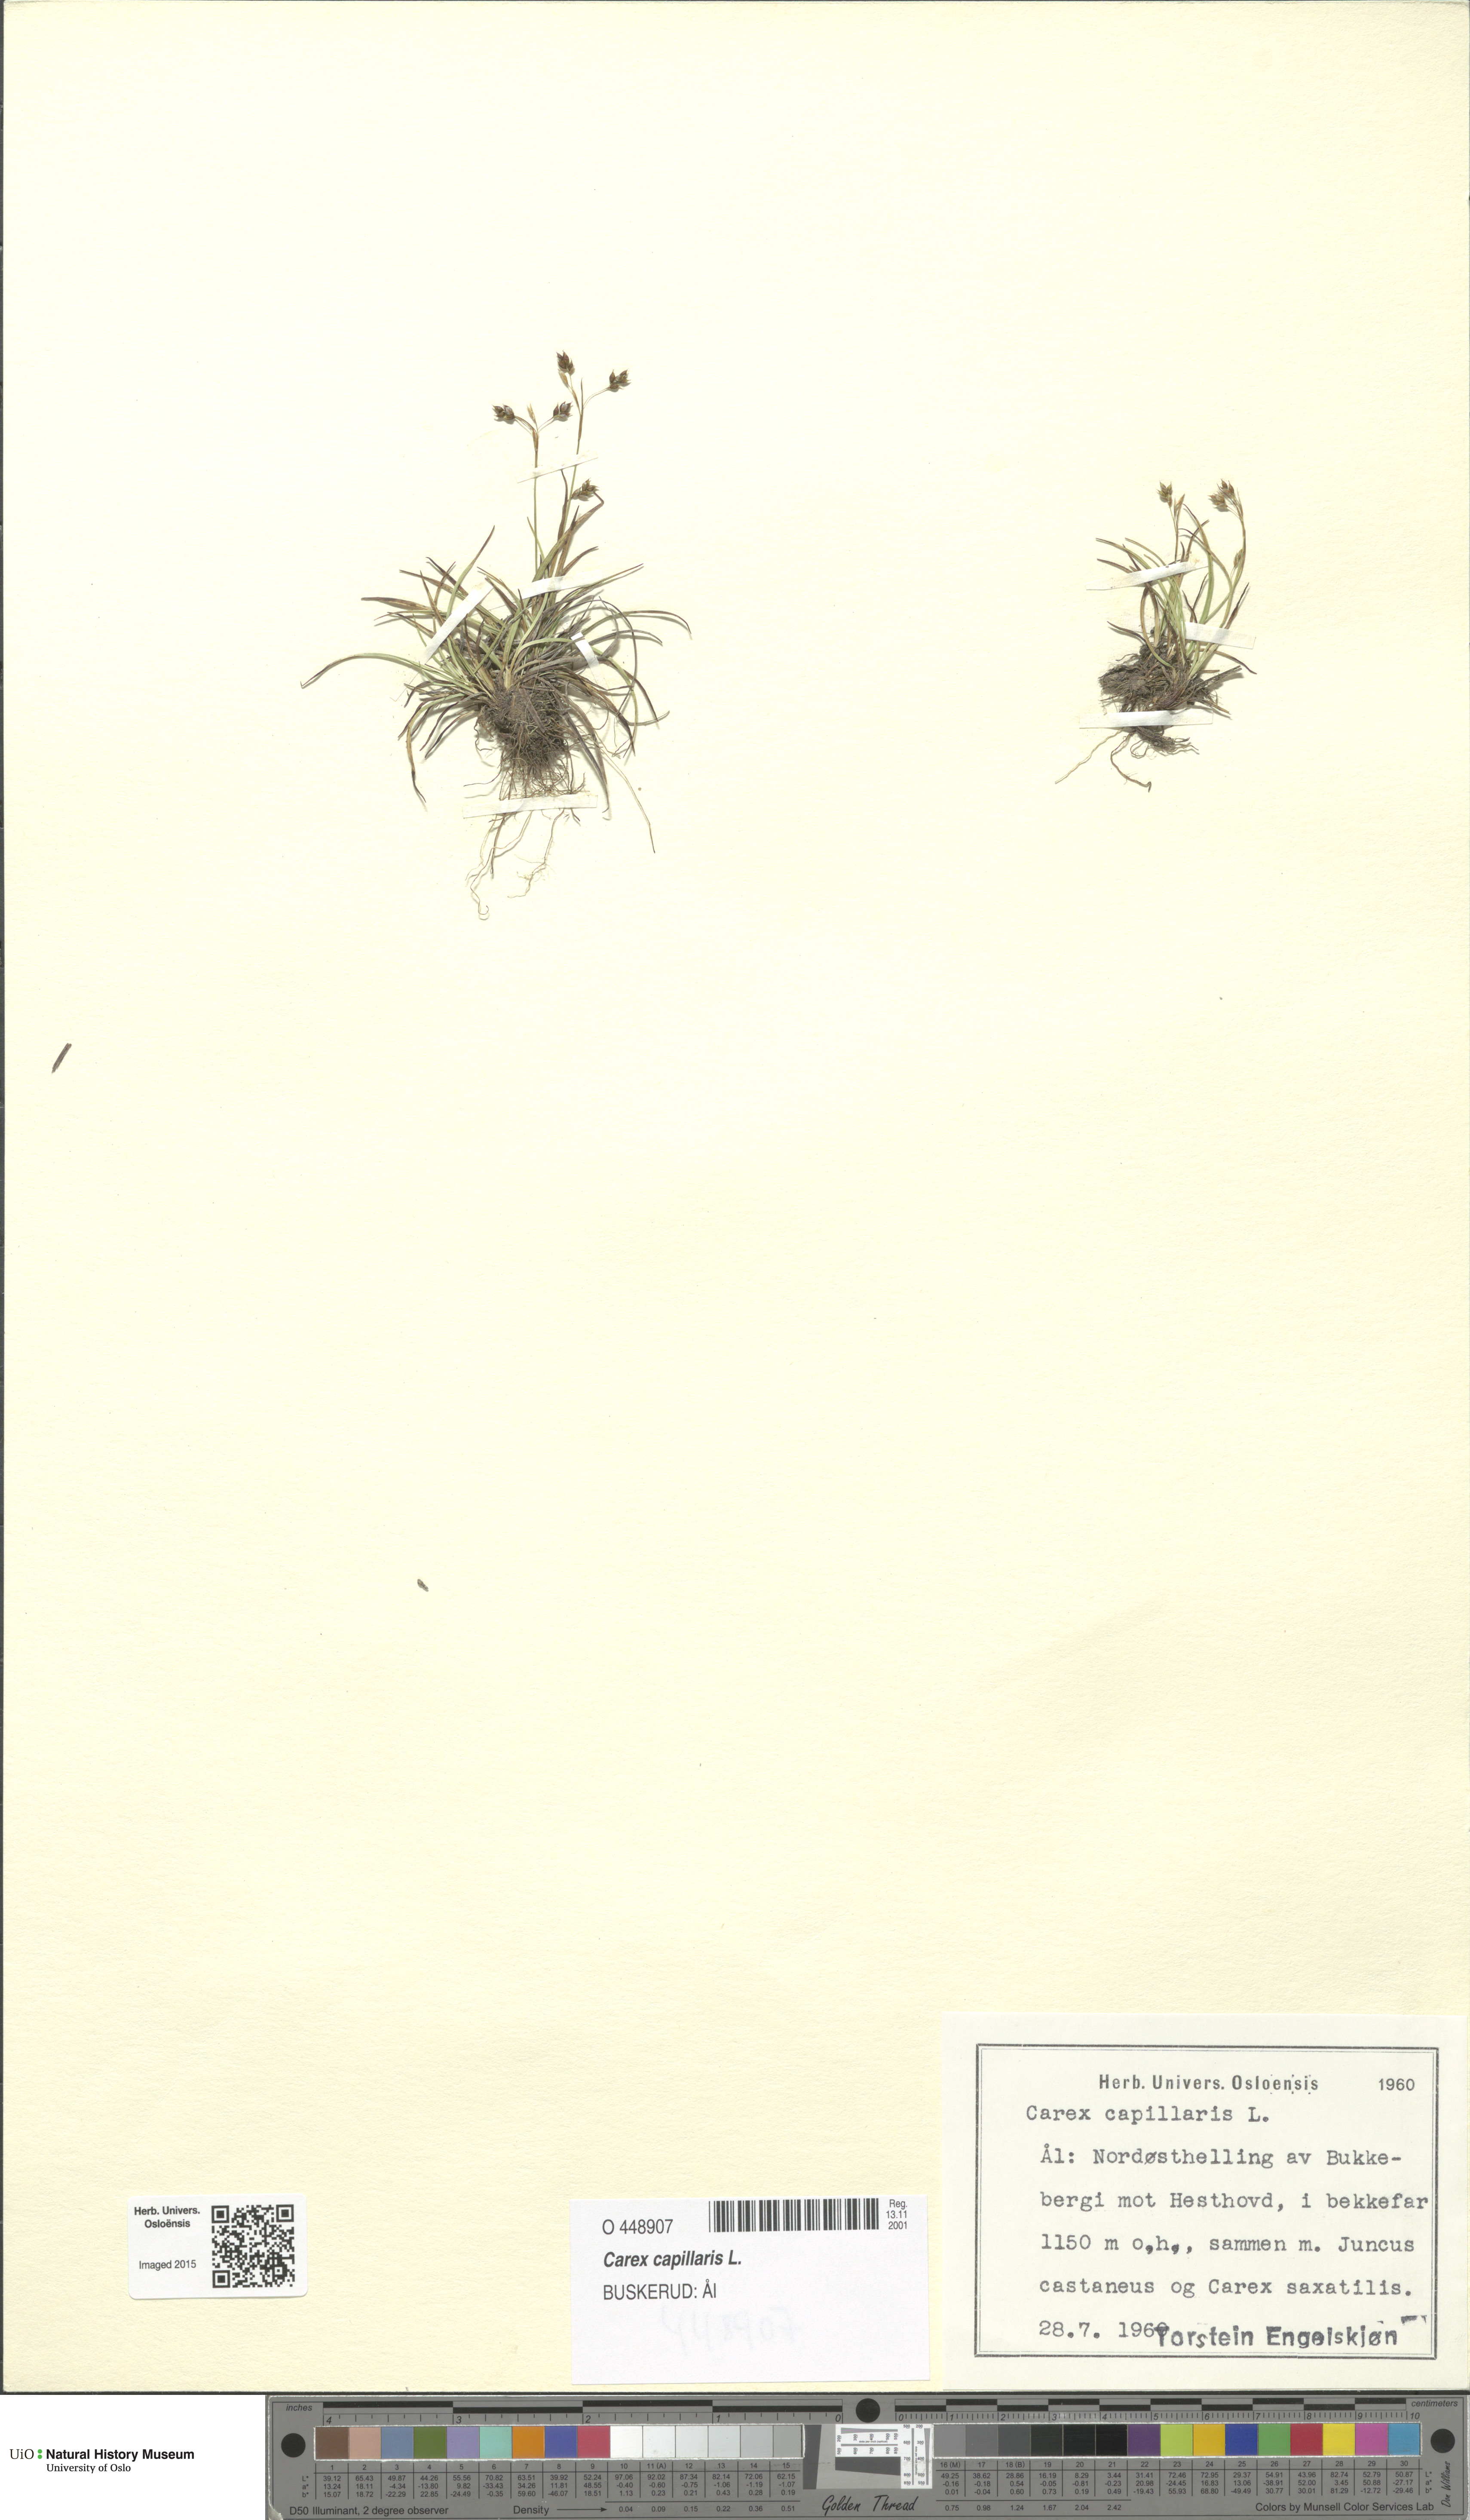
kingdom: Plantae
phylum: Tracheophyta
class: Liliopsida
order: Poales
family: Cyperaceae
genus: Carex
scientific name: Carex capillaris
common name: Hair sedge
